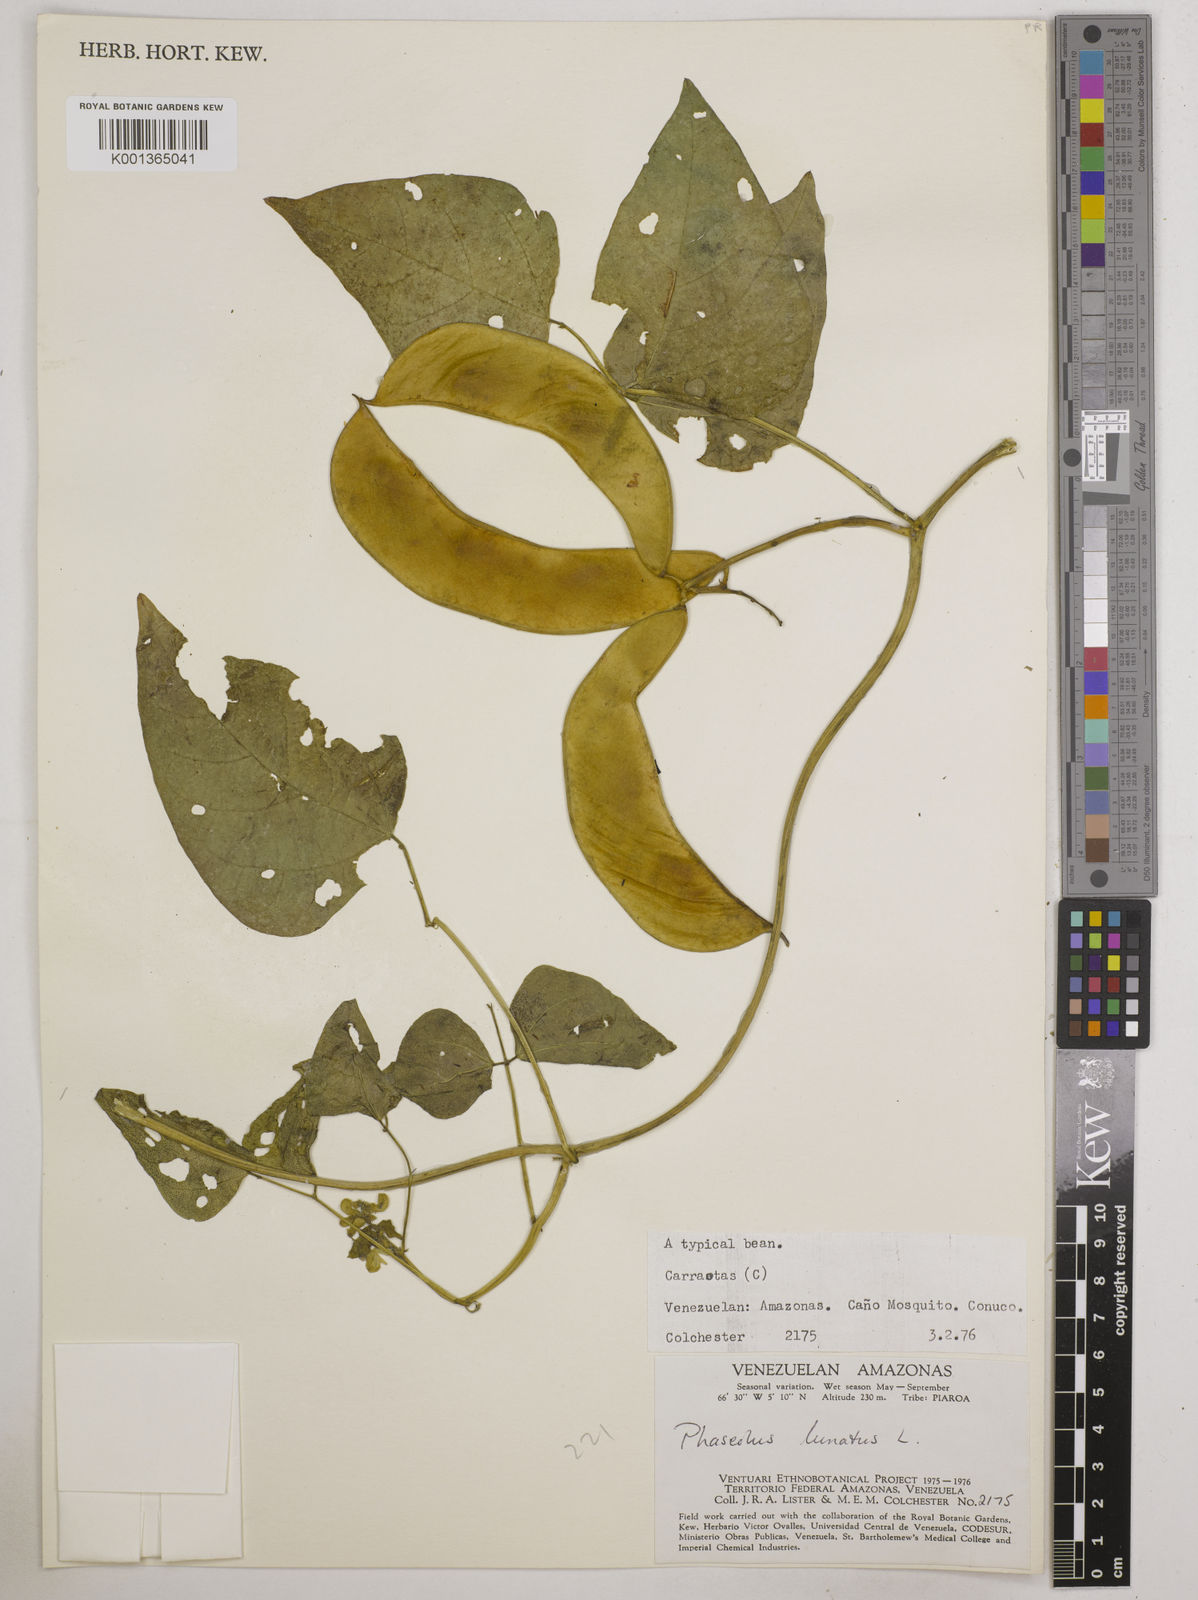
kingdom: Plantae
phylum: Tracheophyta
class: Magnoliopsida
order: Fabales
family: Fabaceae
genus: Phaseolus
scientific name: Phaseolus lunatus
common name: Sieva bean
